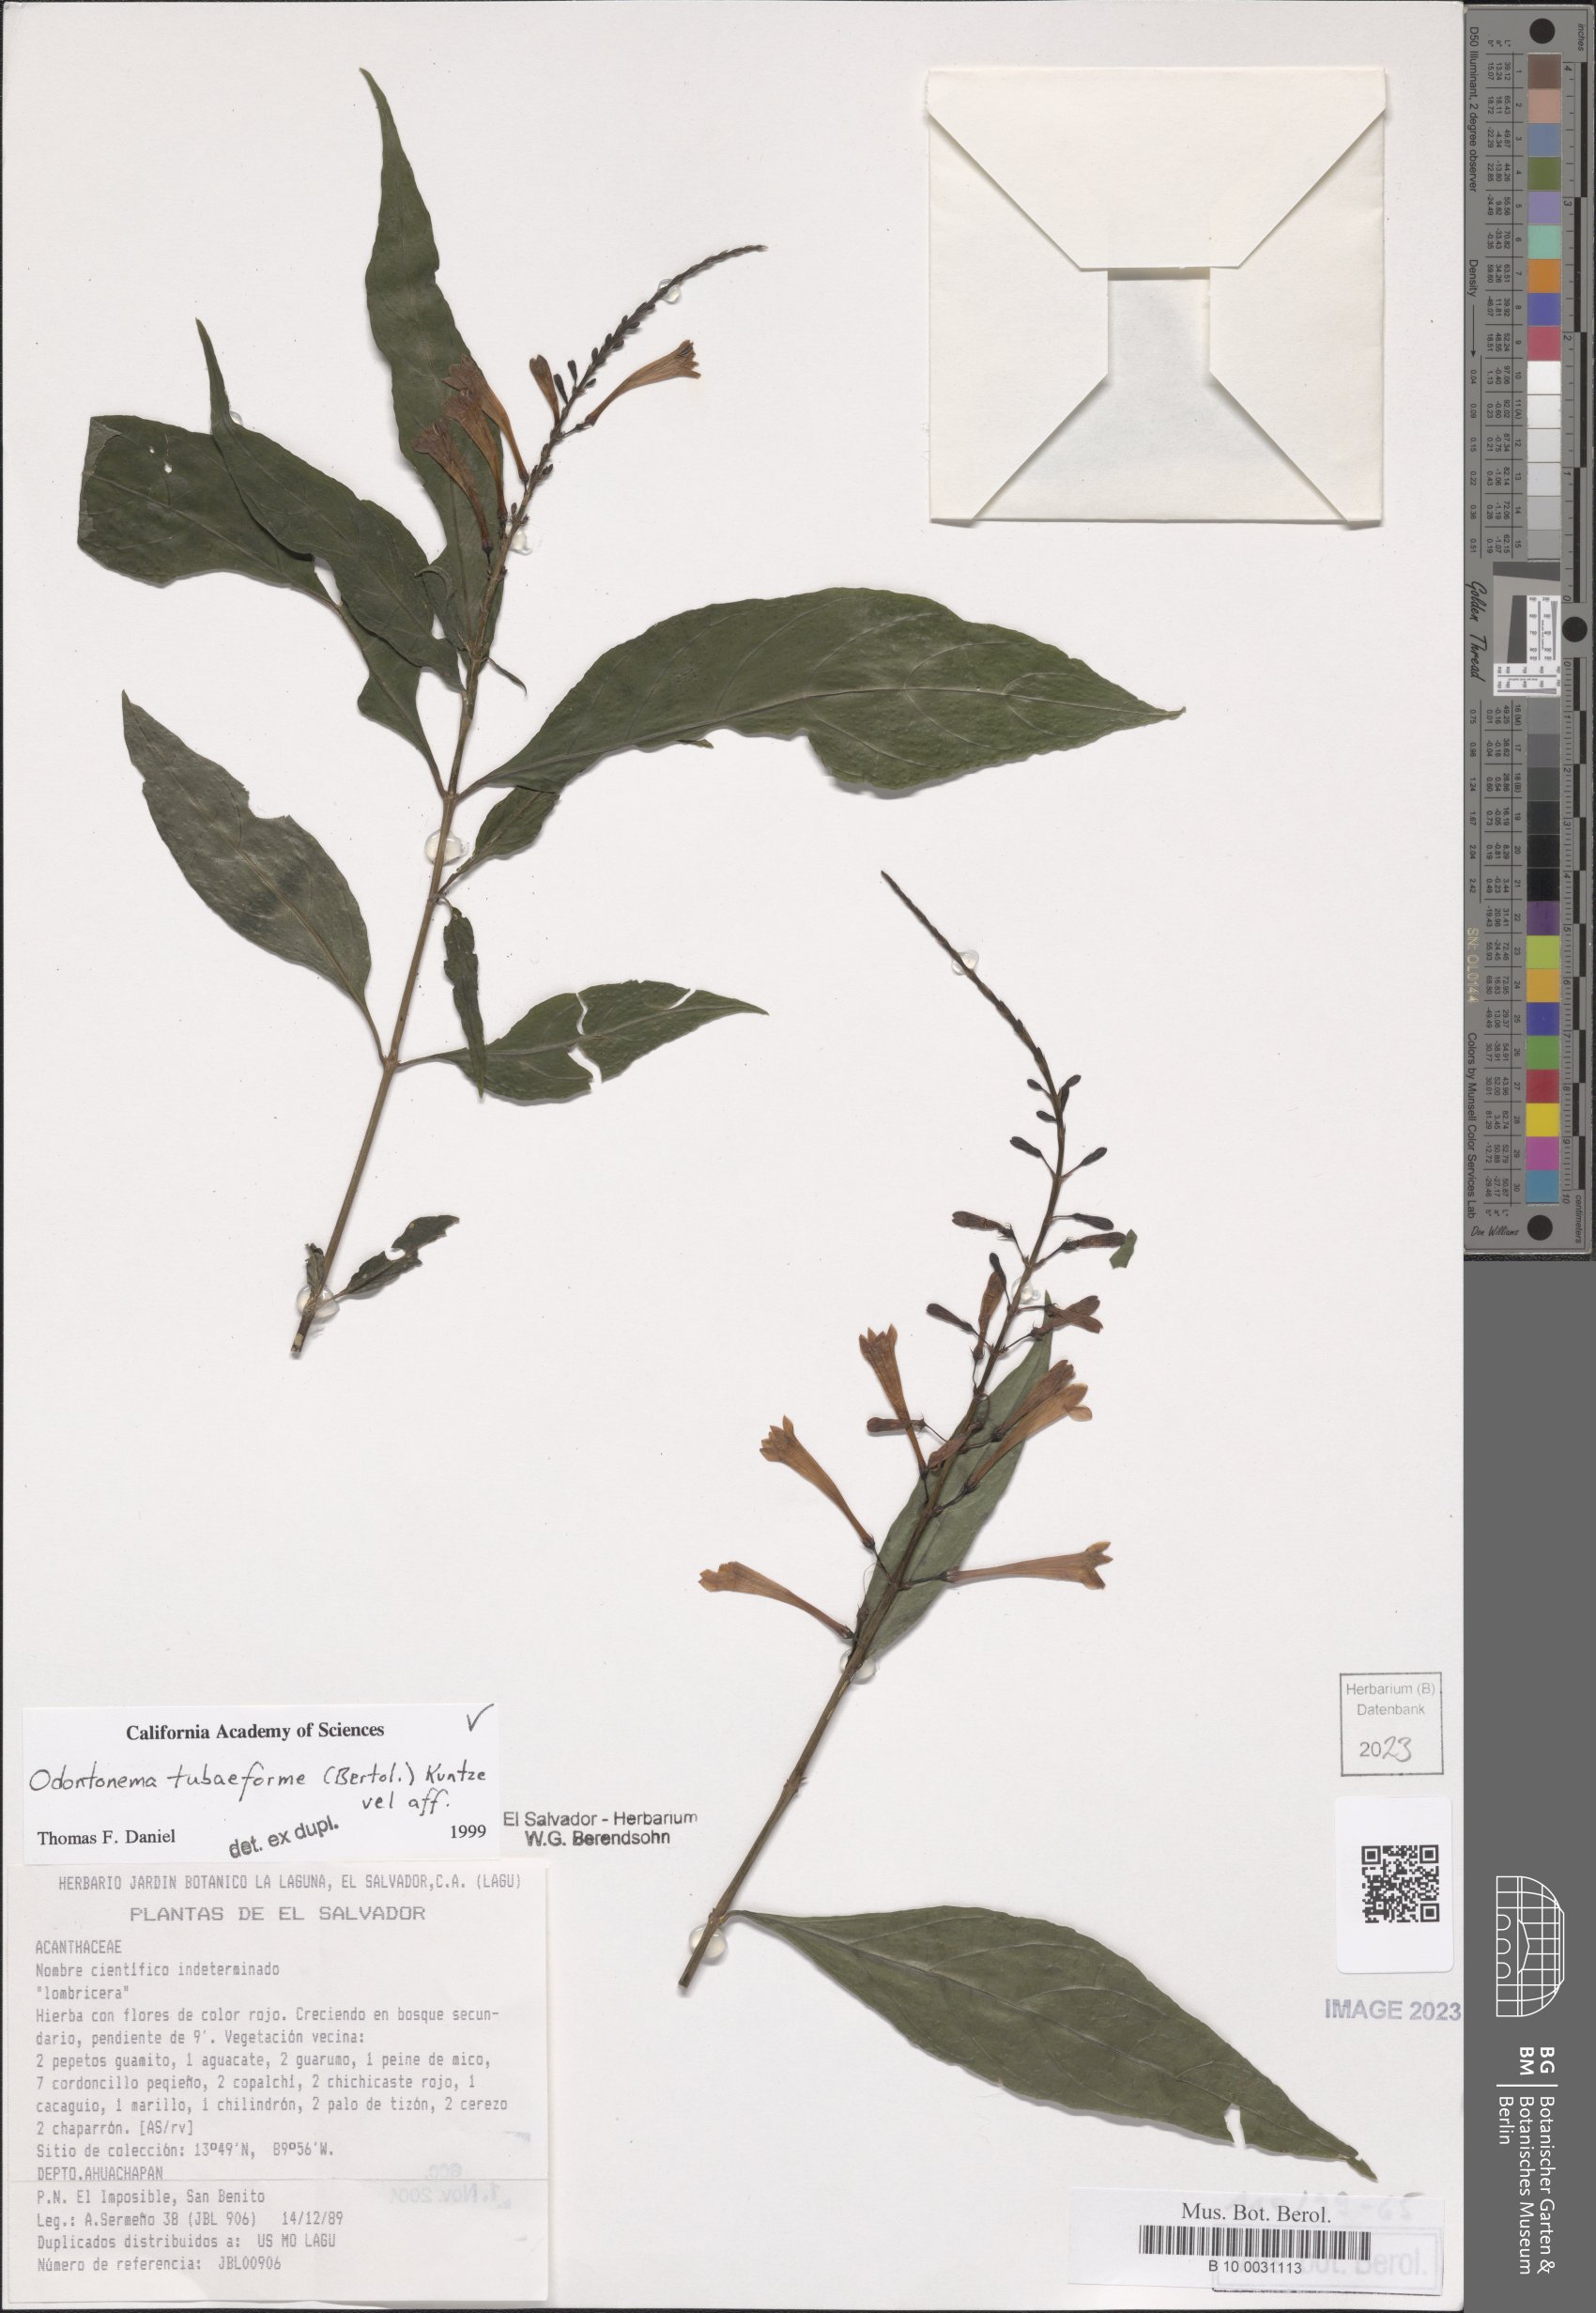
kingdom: Plantae
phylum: Tracheophyta
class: Magnoliopsida
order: Lamiales
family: Acanthaceae
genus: Odontonema
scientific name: Odontonema tubaeforme
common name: Firespike
